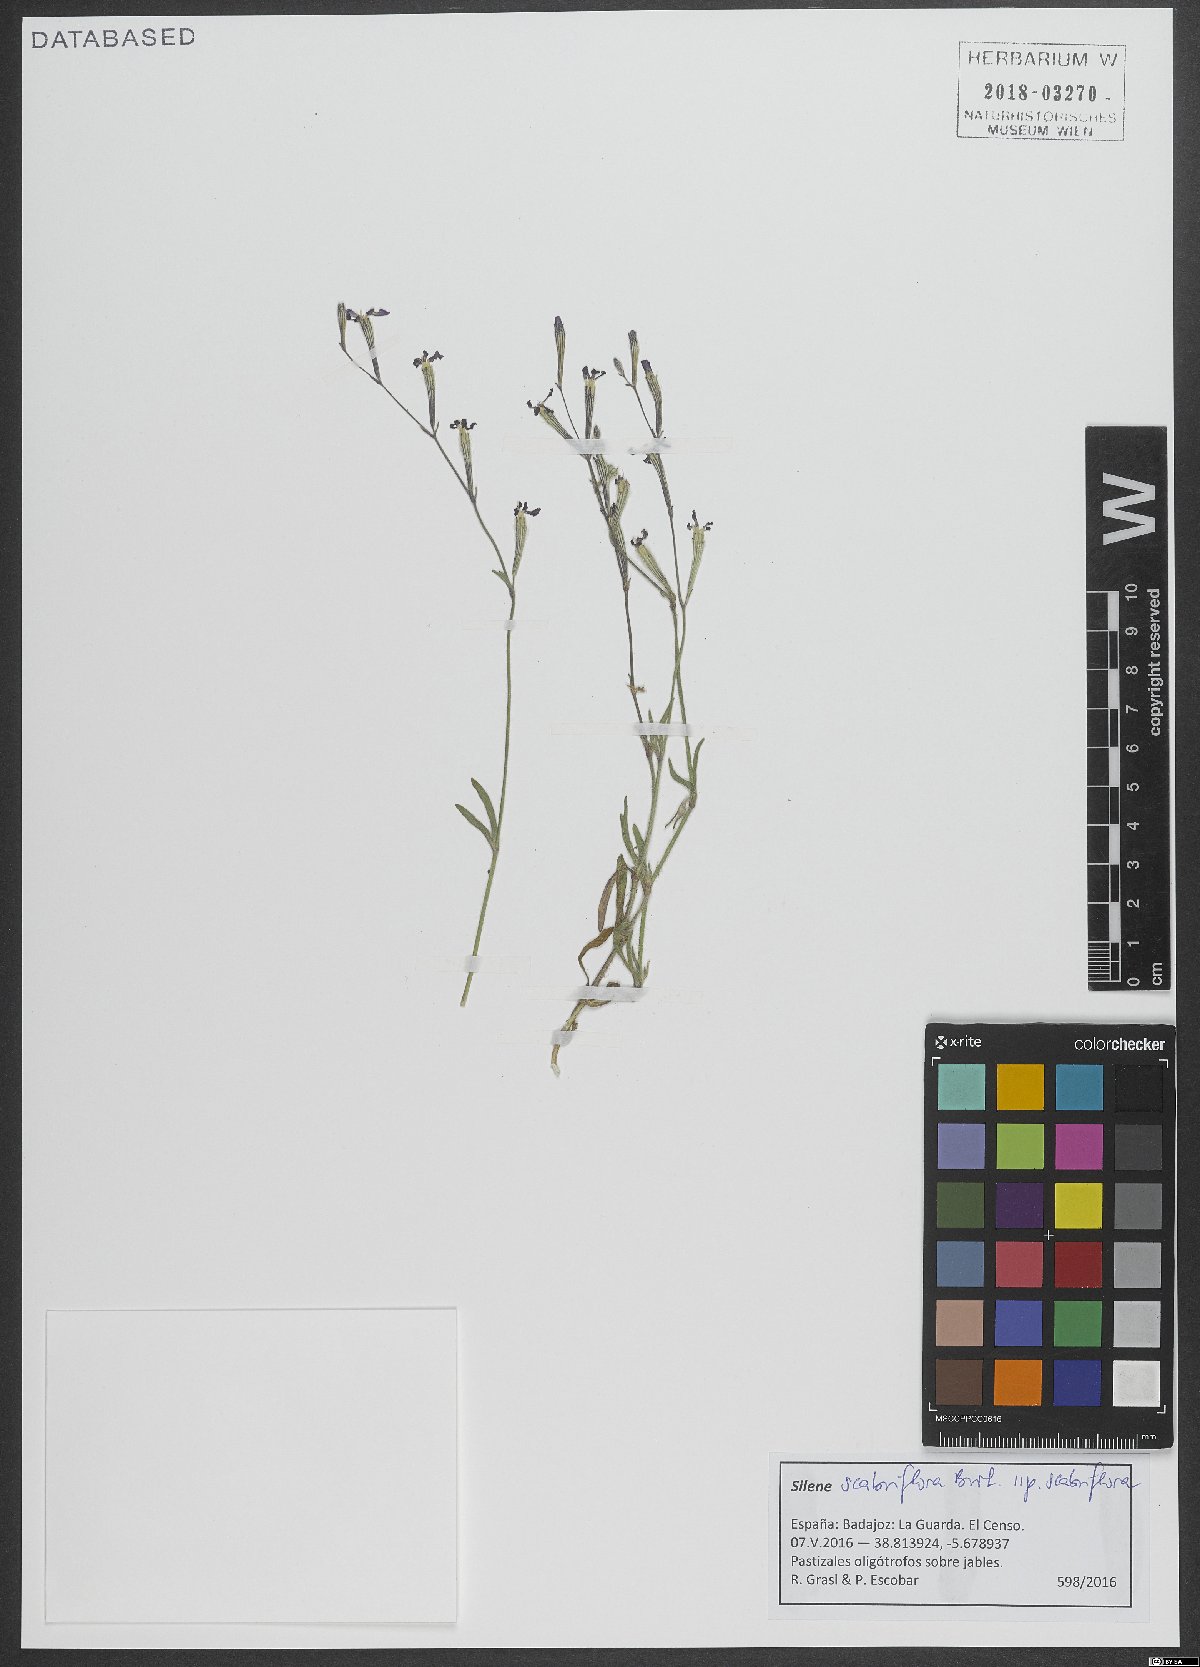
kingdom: Plantae
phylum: Tracheophyta
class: Magnoliopsida
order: Caryophyllales
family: Caryophyllaceae
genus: Silene
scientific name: Silene scabriflora
